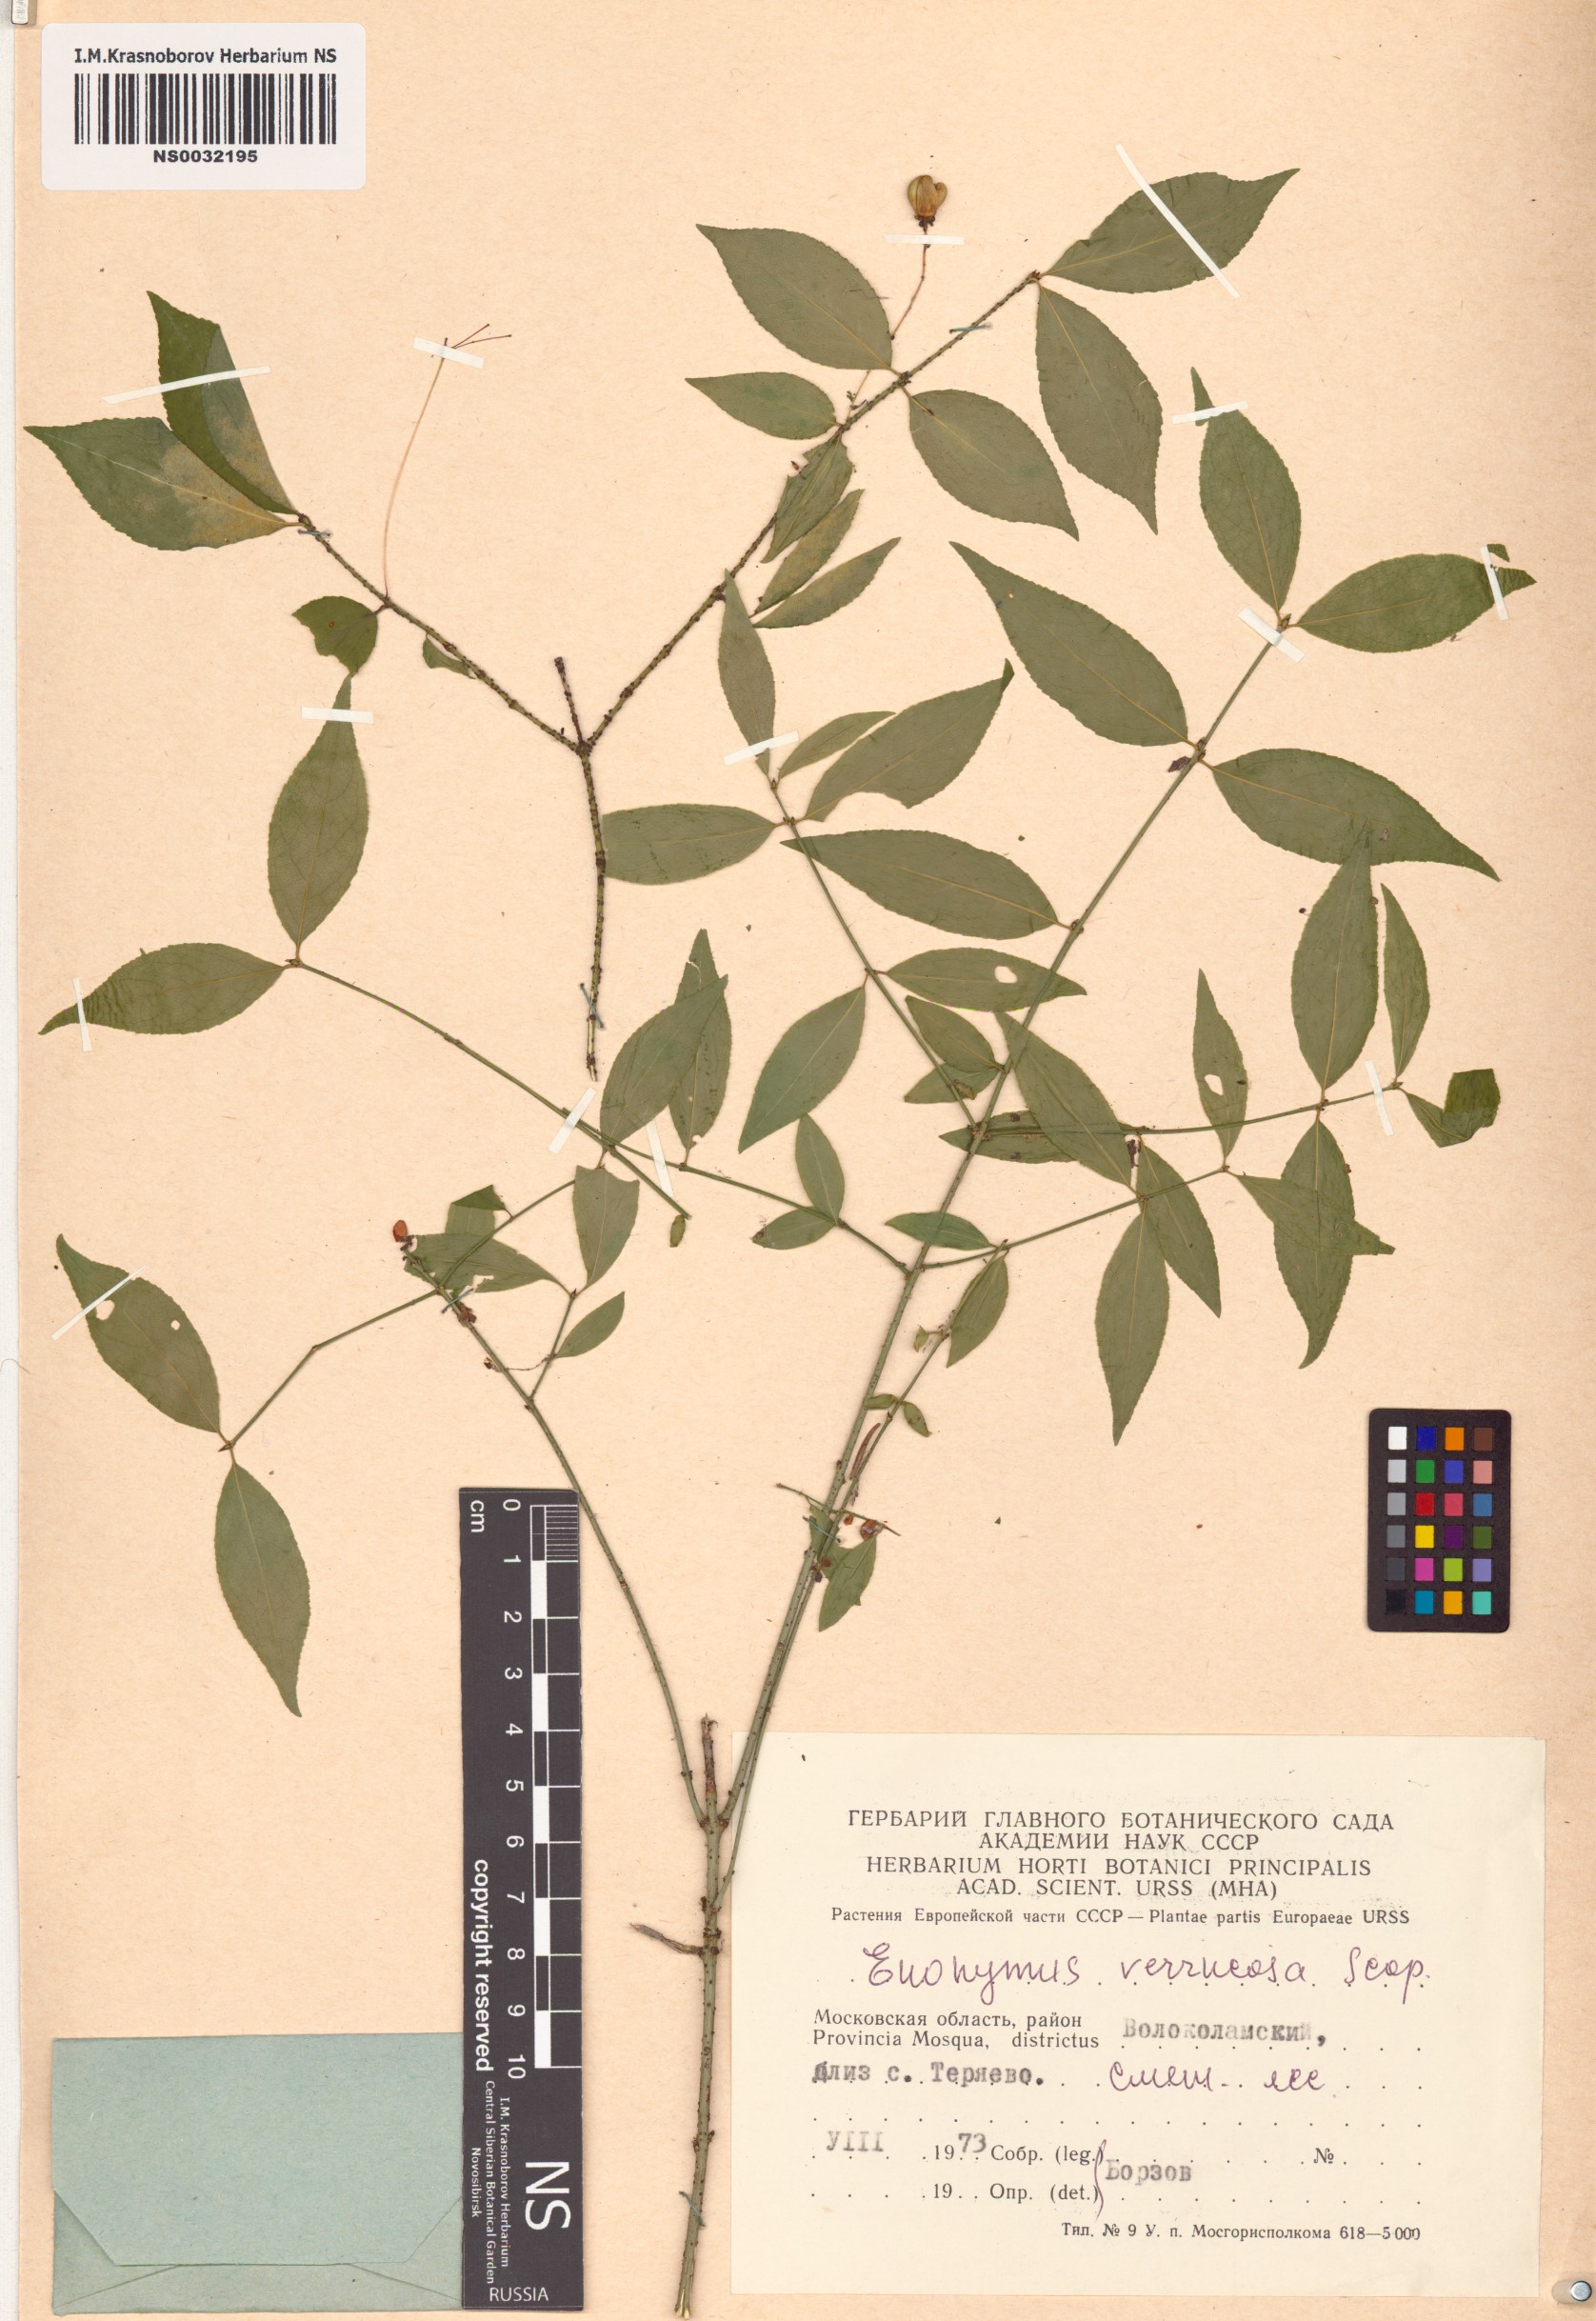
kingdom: Plantae
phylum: Tracheophyta
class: Magnoliopsida
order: Celastrales
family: Celastraceae
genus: Euonymus
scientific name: Euonymus verrucosus
